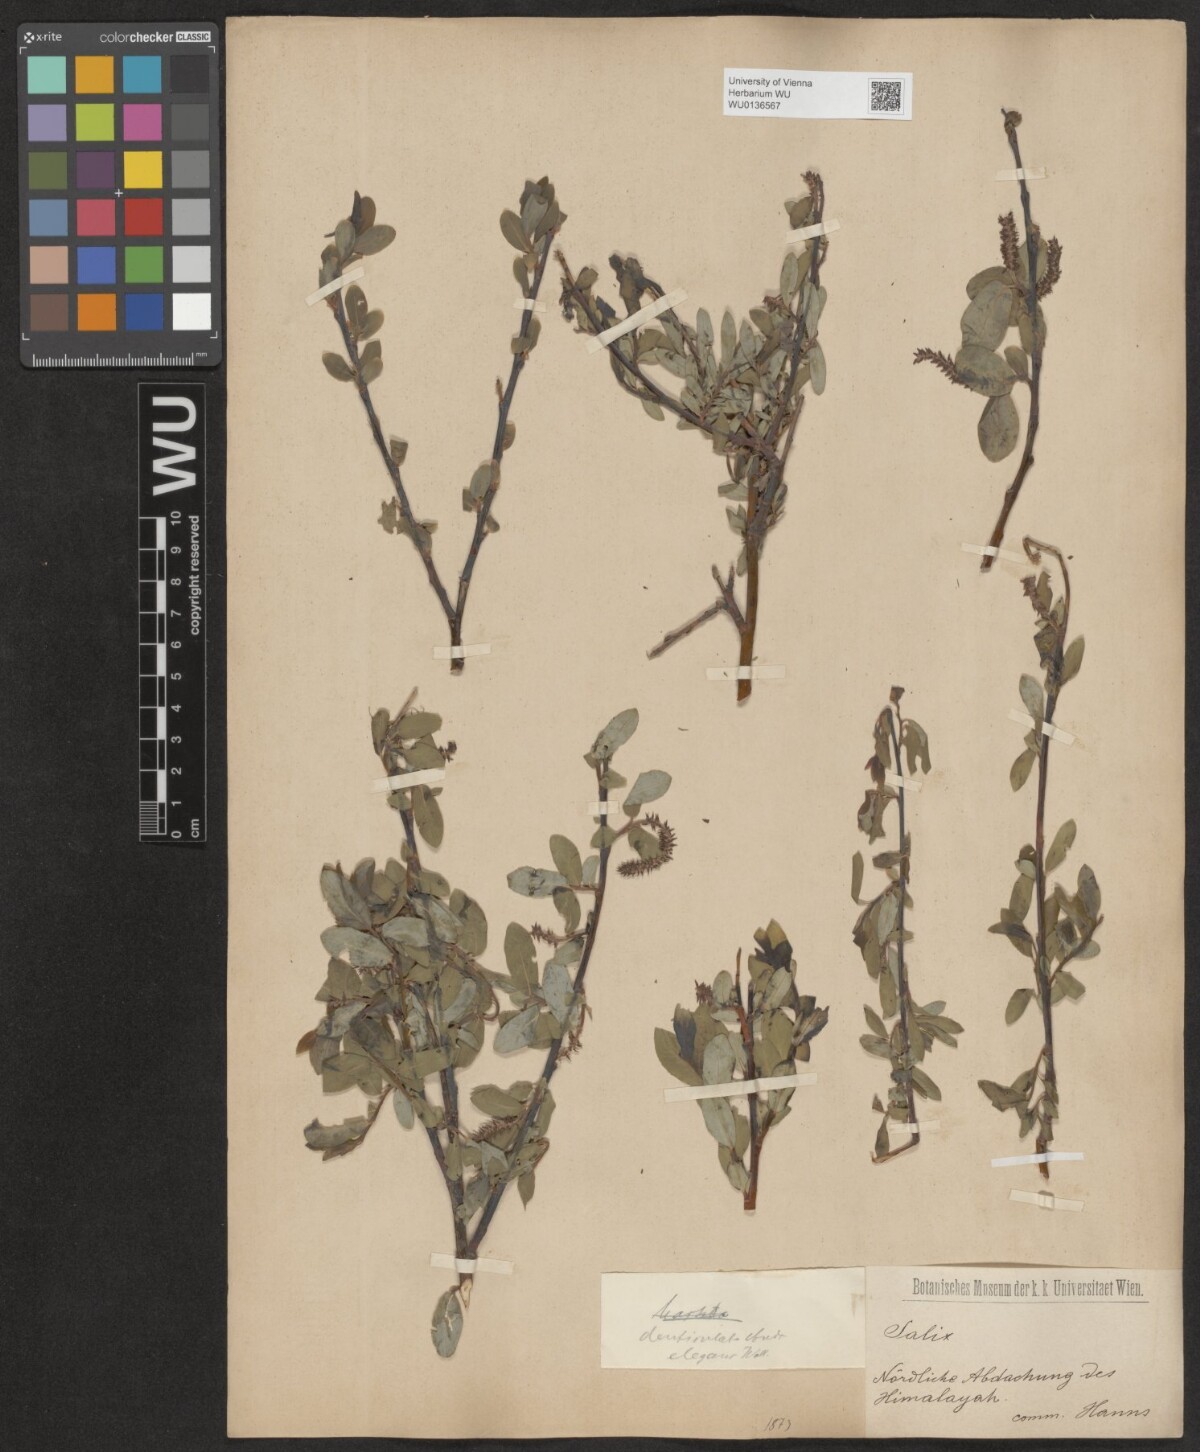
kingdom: Plantae
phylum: Tracheophyta
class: Magnoliopsida
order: Malpighiales
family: Salicaceae
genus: Salix
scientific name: Salix hastata
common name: Halberd willow
